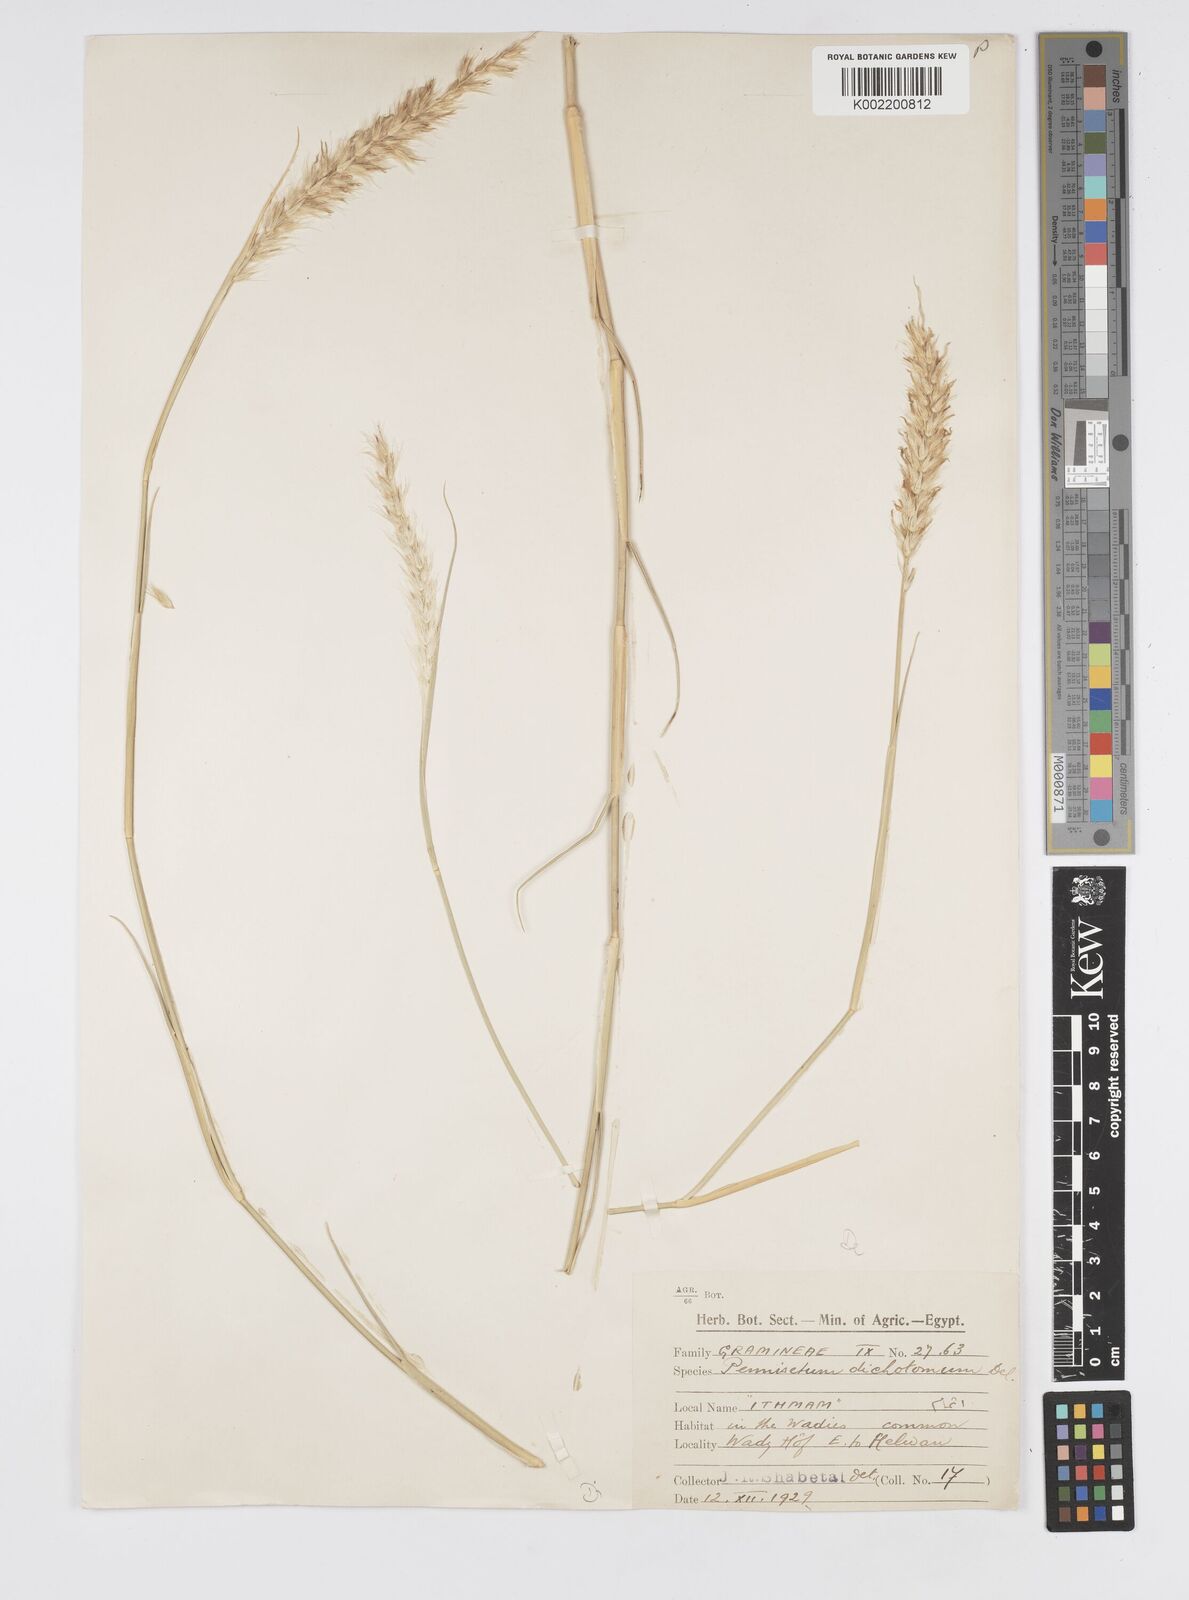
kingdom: Plantae
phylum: Tracheophyta
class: Liliopsida
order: Poales
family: Poaceae
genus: Cenchrus
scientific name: Cenchrus divisus
